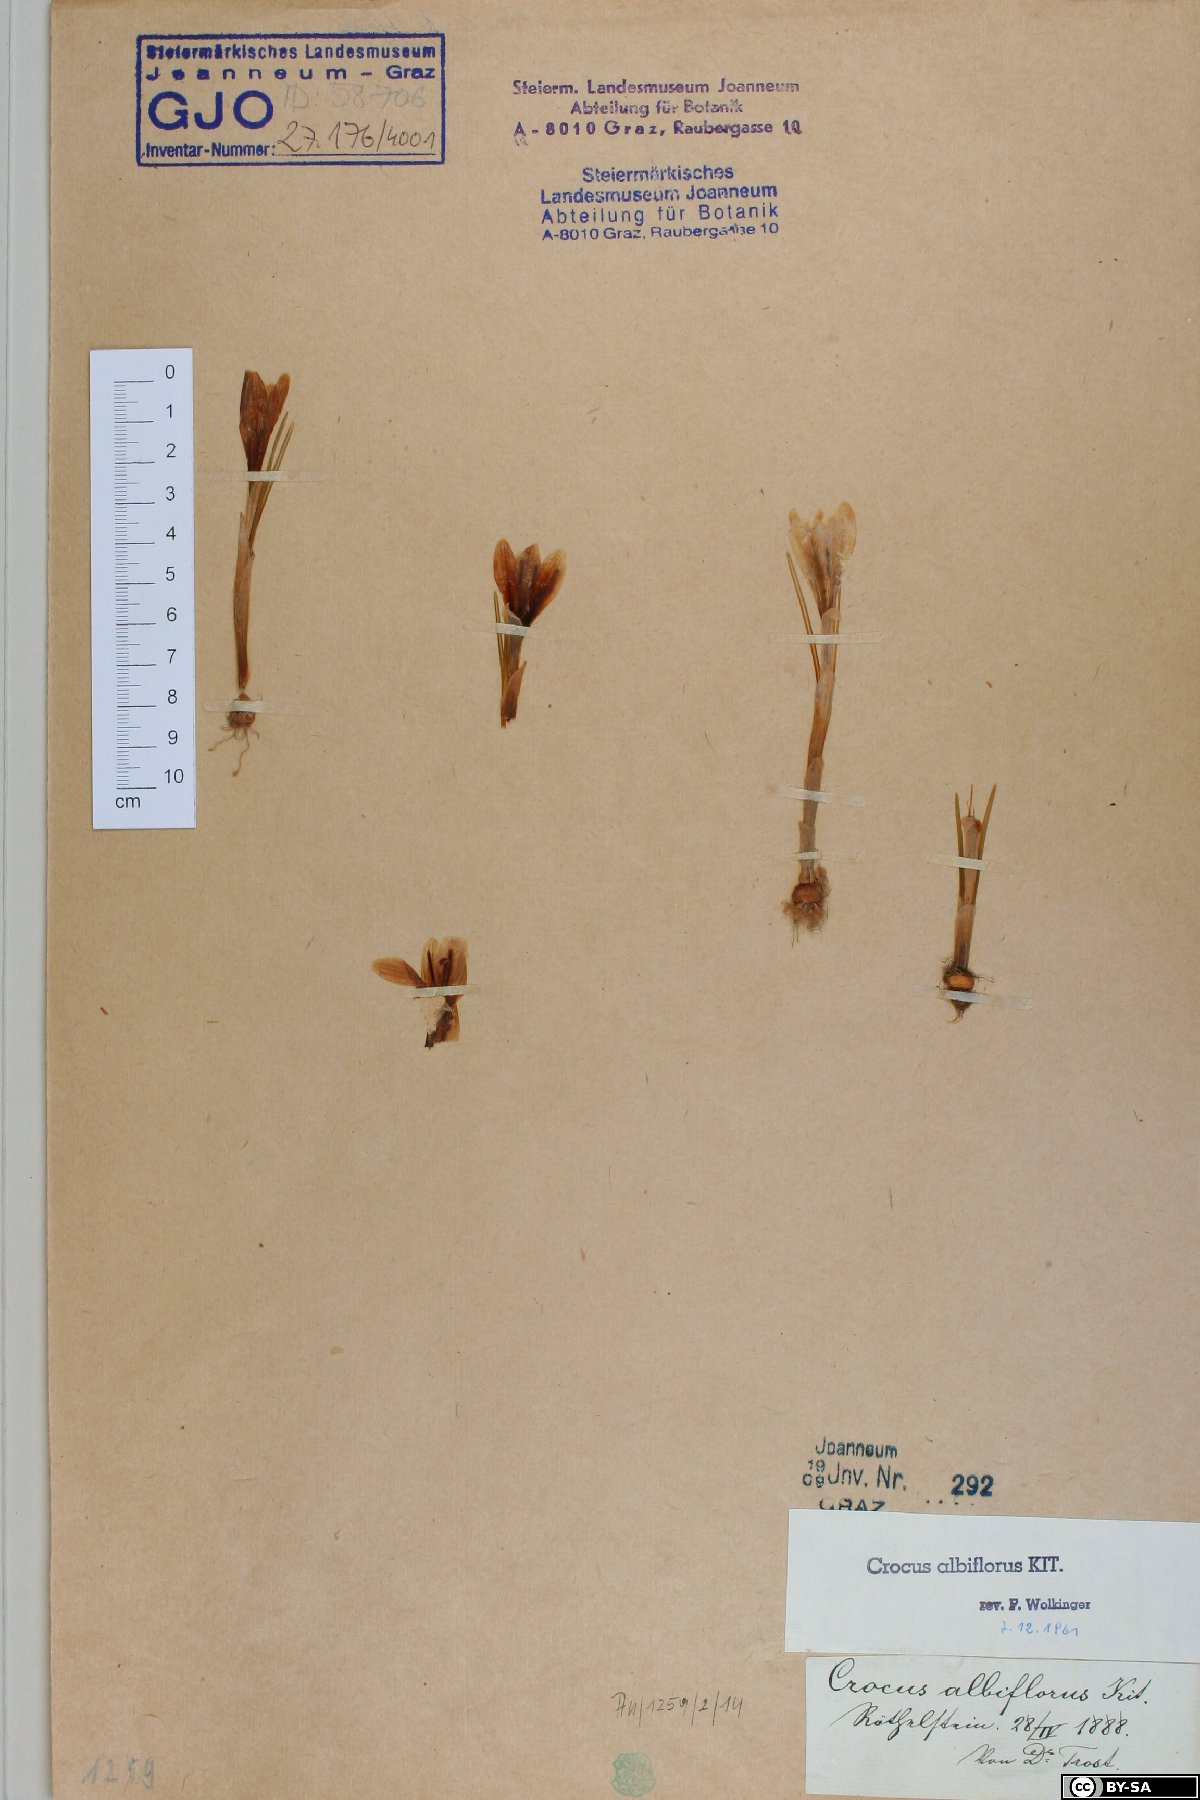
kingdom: Plantae
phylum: Tracheophyta
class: Liliopsida
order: Asparagales
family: Iridaceae
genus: Crocus
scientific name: Crocus vernus
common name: Spring crocus
